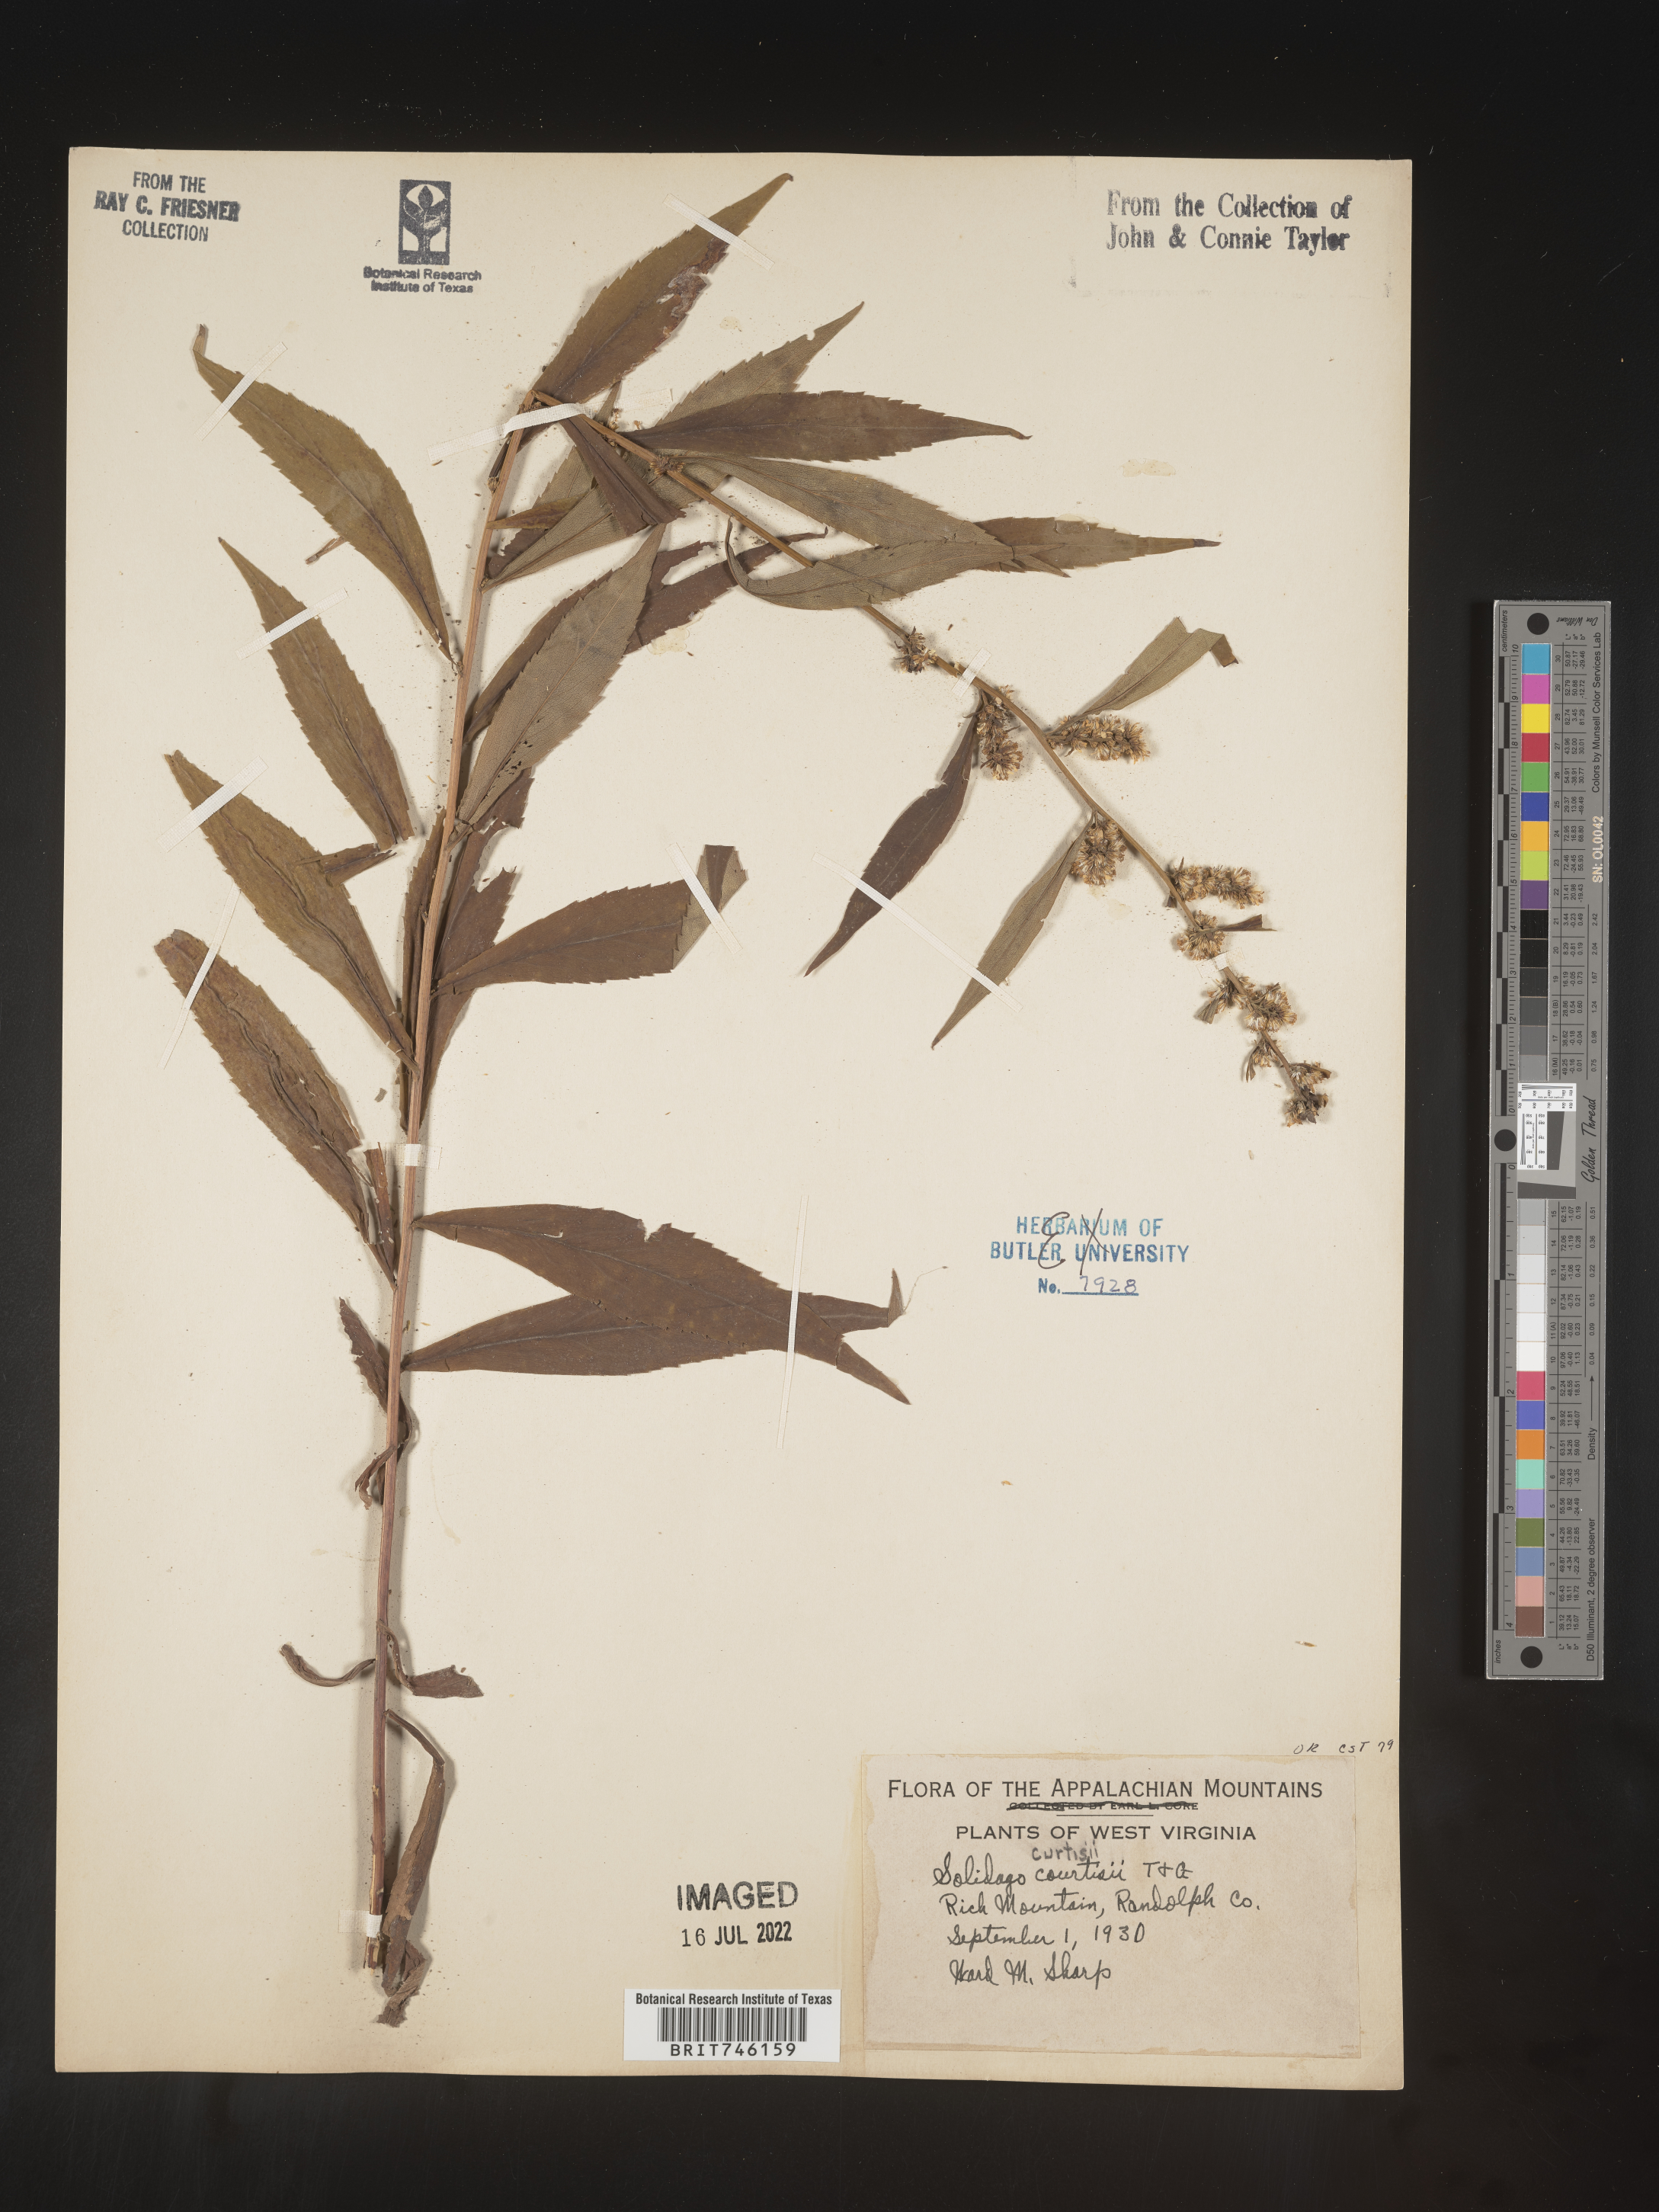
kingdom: Plantae
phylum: Tracheophyta
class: Magnoliopsida
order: Asterales
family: Asteraceae
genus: Solidago
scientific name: Solidago curtisii
